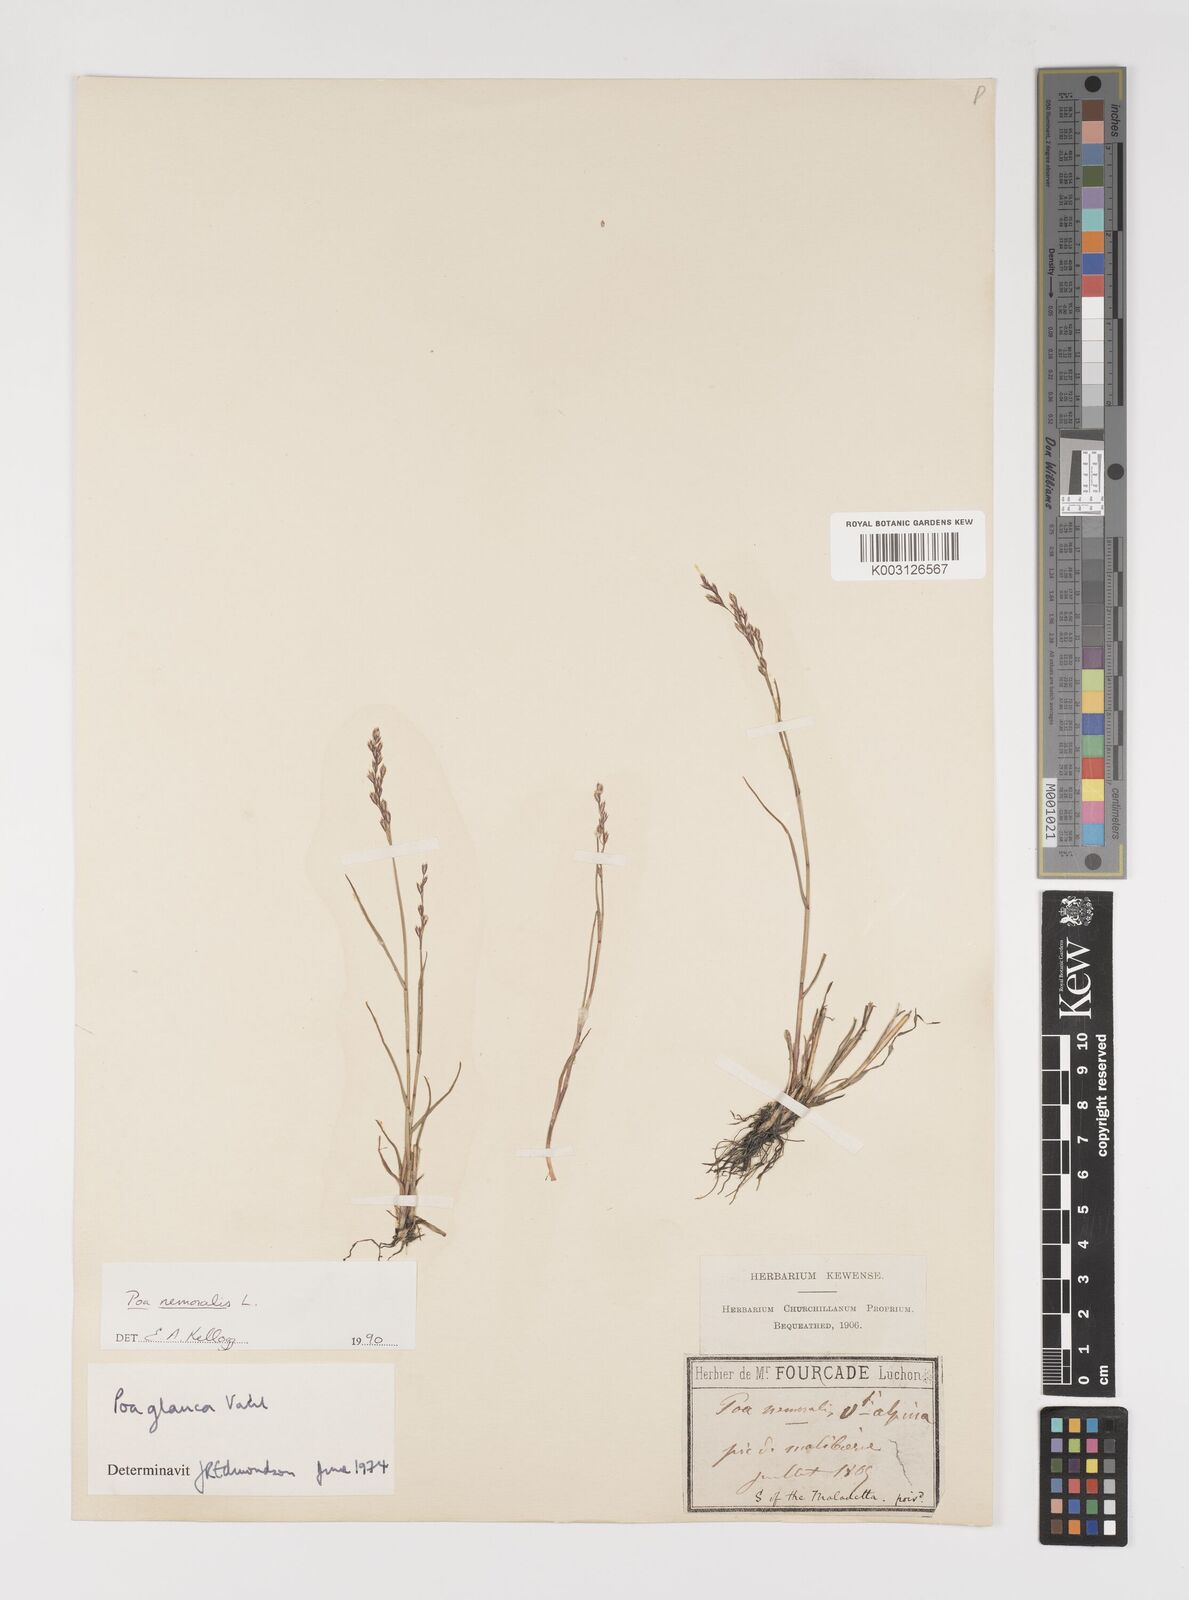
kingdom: Plantae
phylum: Tracheophyta
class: Liliopsida
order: Poales
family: Poaceae
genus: Poa
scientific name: Poa nemoralis
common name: Wood bluegrass
